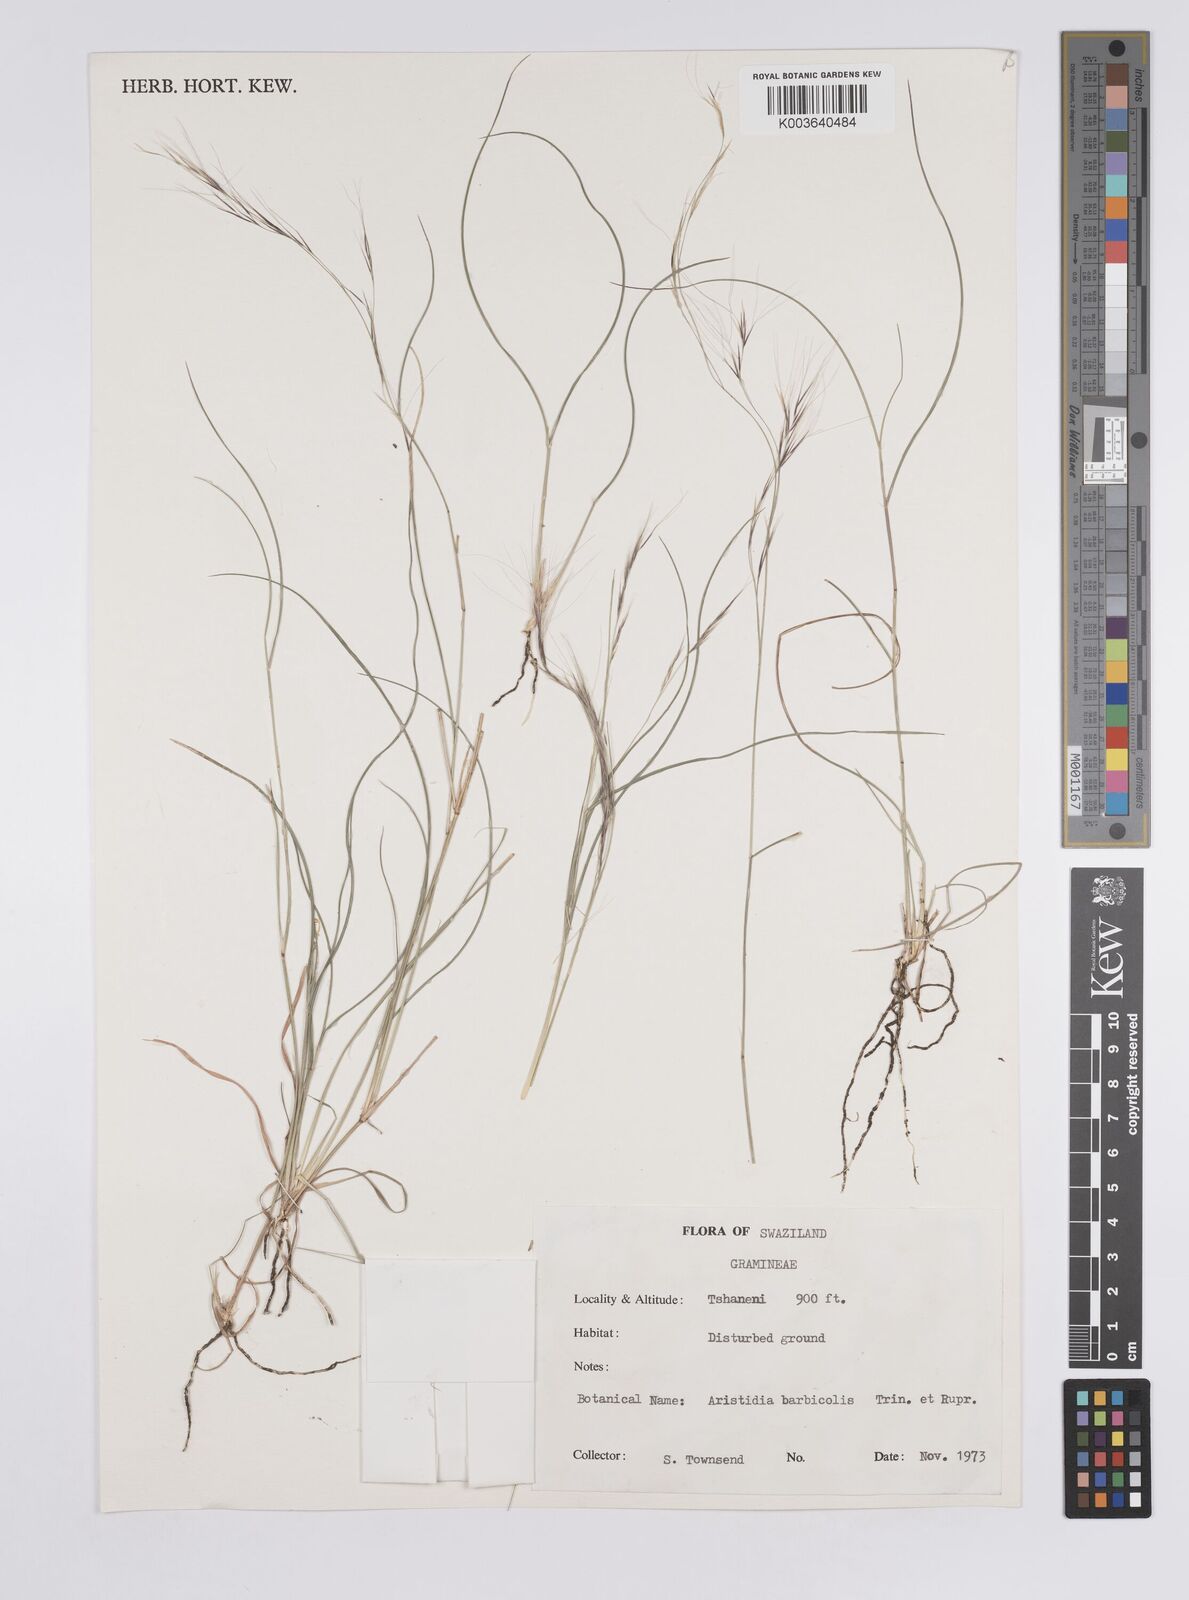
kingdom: Plantae
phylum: Tracheophyta
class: Liliopsida
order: Poales
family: Poaceae
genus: Aristida
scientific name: Aristida barbicollis
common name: Spreading prickle grass
